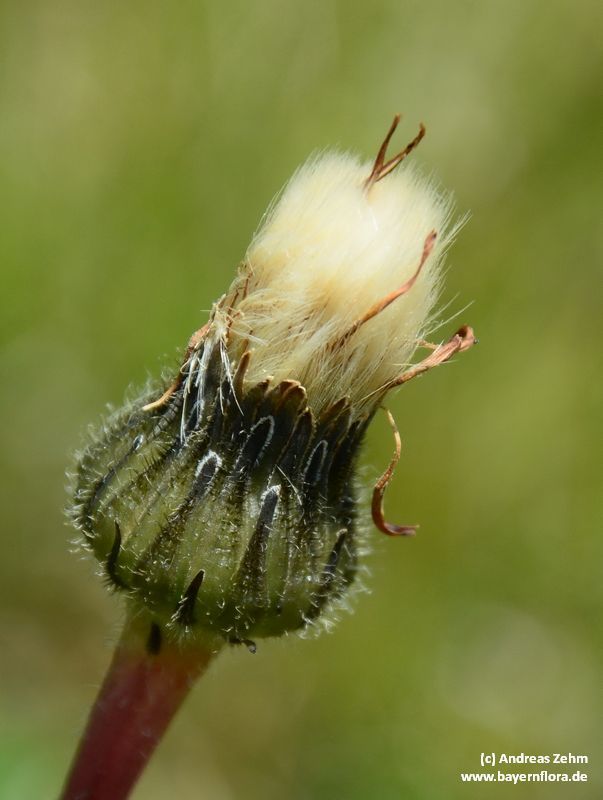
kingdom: Plantae
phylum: Tracheophyta
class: Magnoliopsida
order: Asterales
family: Asteraceae
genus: Trommsdorffia
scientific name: Trommsdorffia maculata
